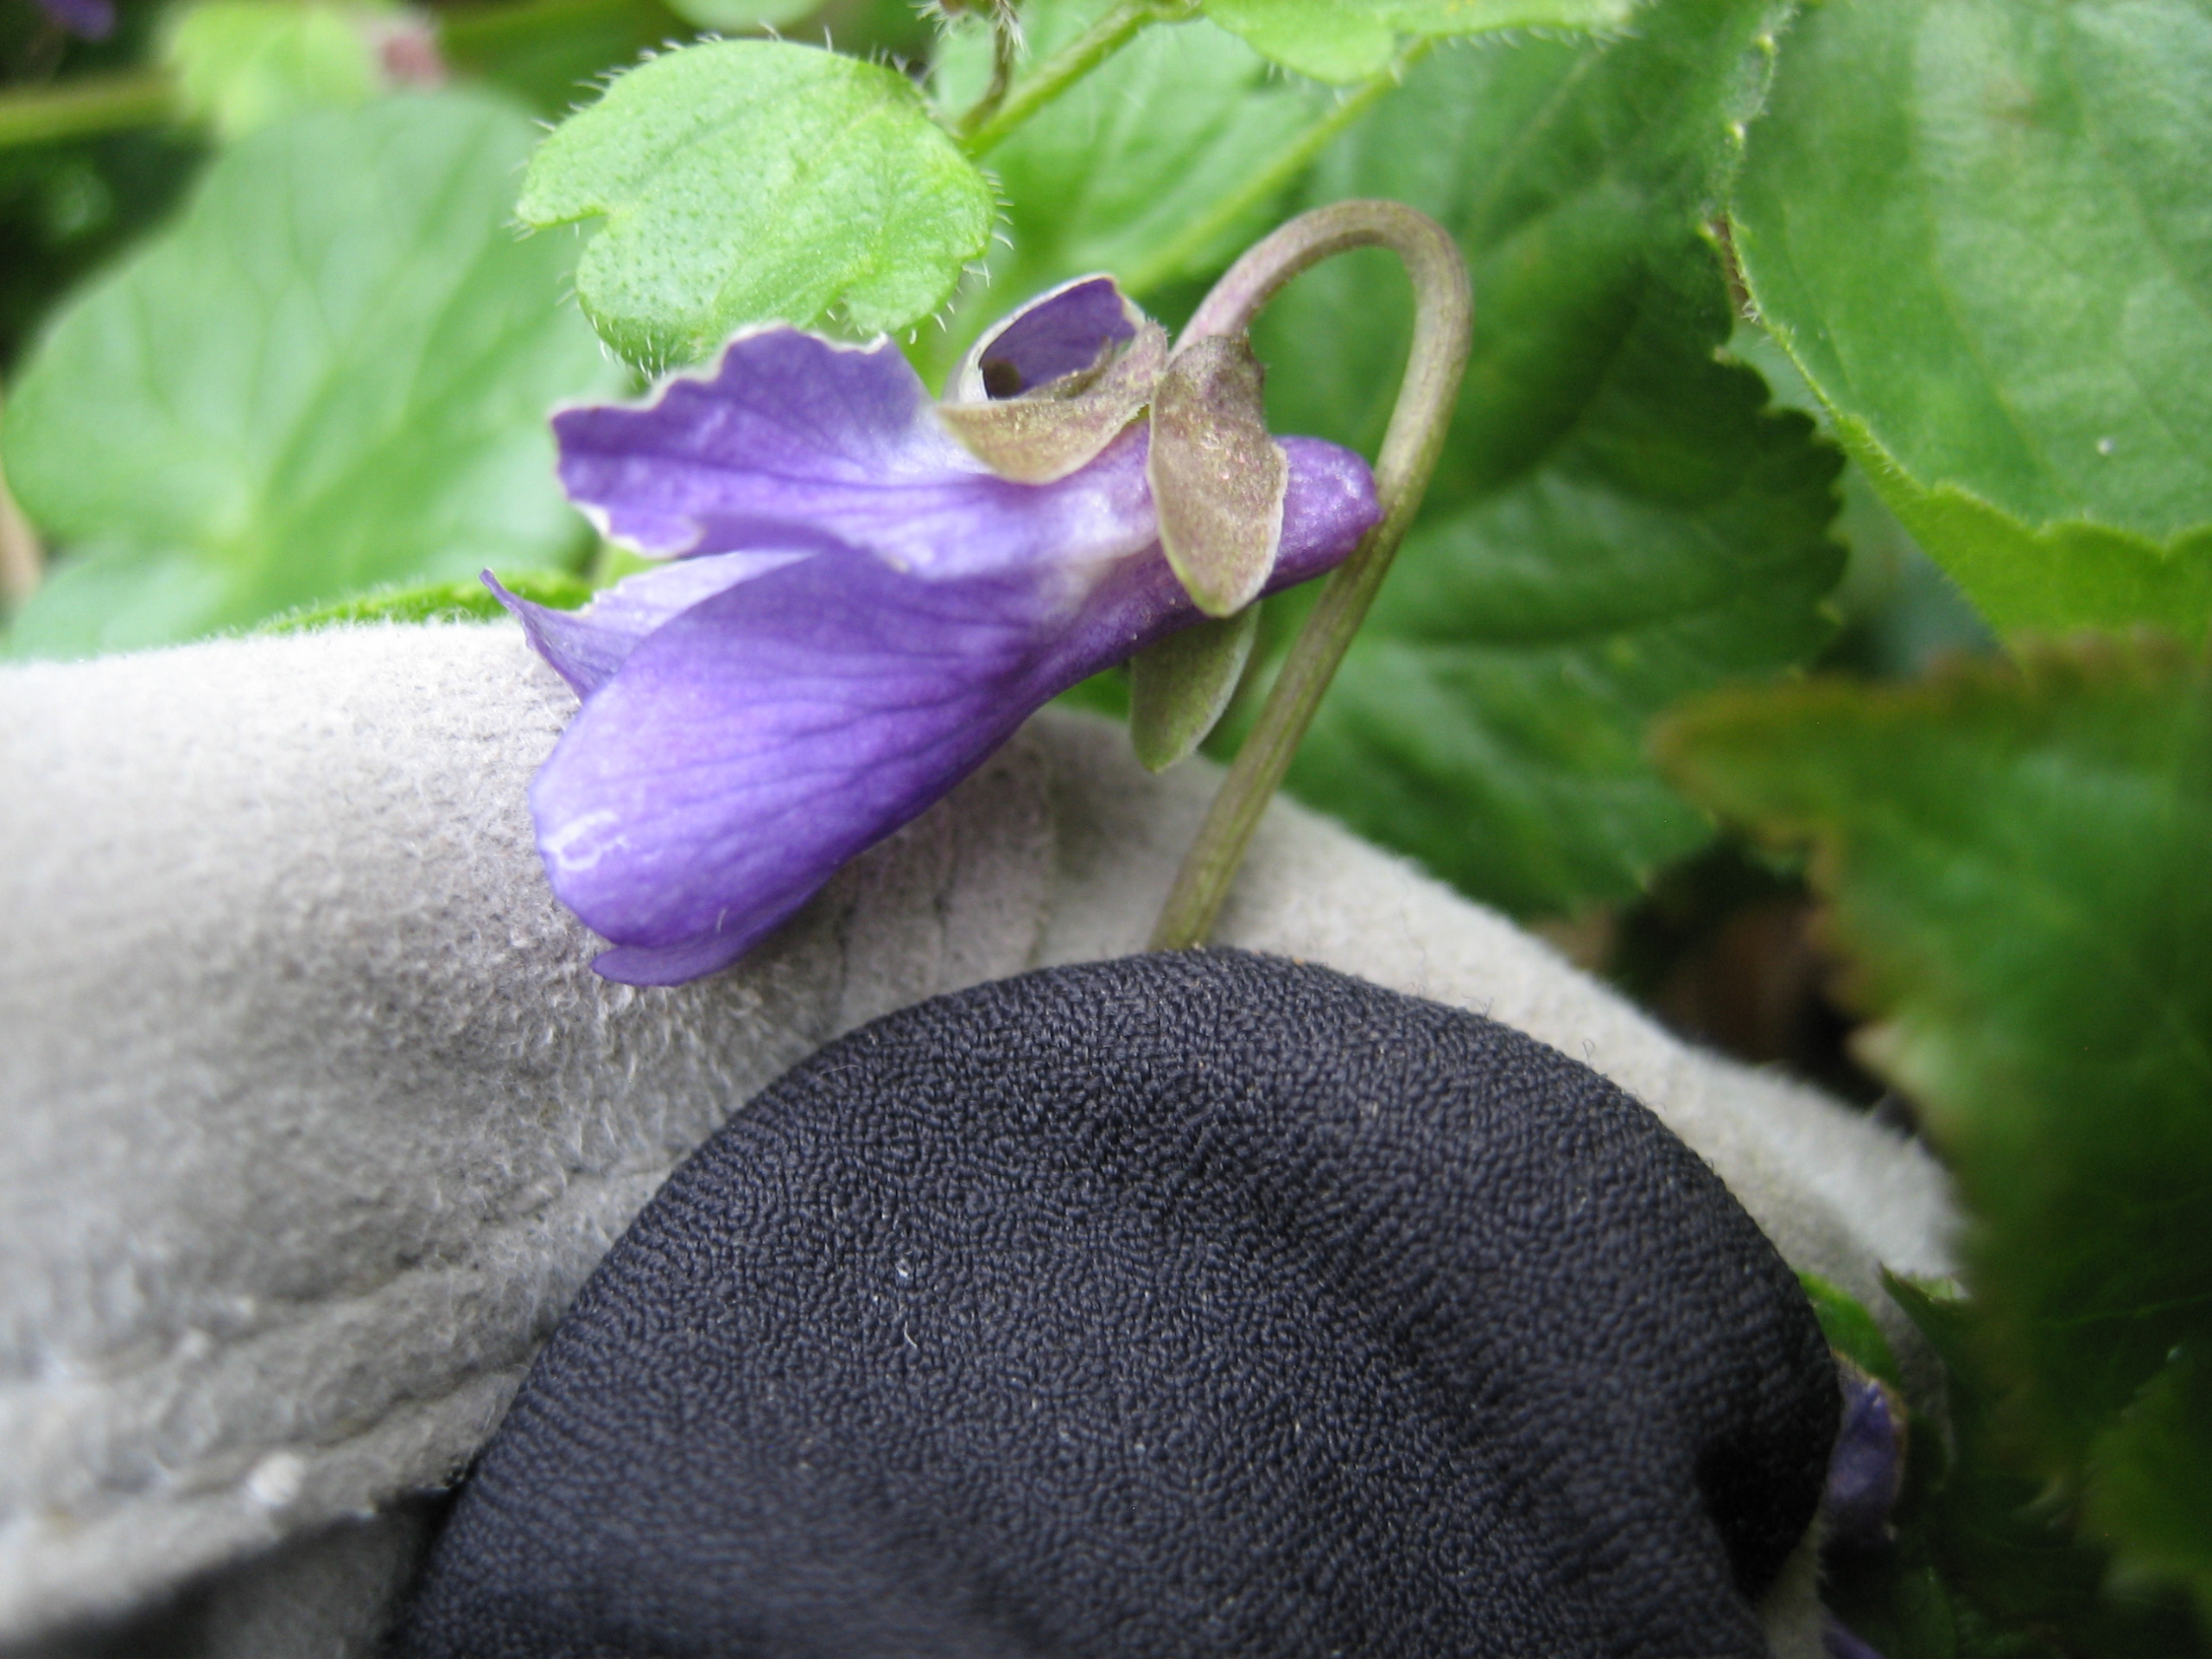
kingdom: Plantae
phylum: Tracheophyta
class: Magnoliopsida
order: Malpighiales
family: Violaceae
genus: Viola
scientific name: Viola odorata
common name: Marts-viol
